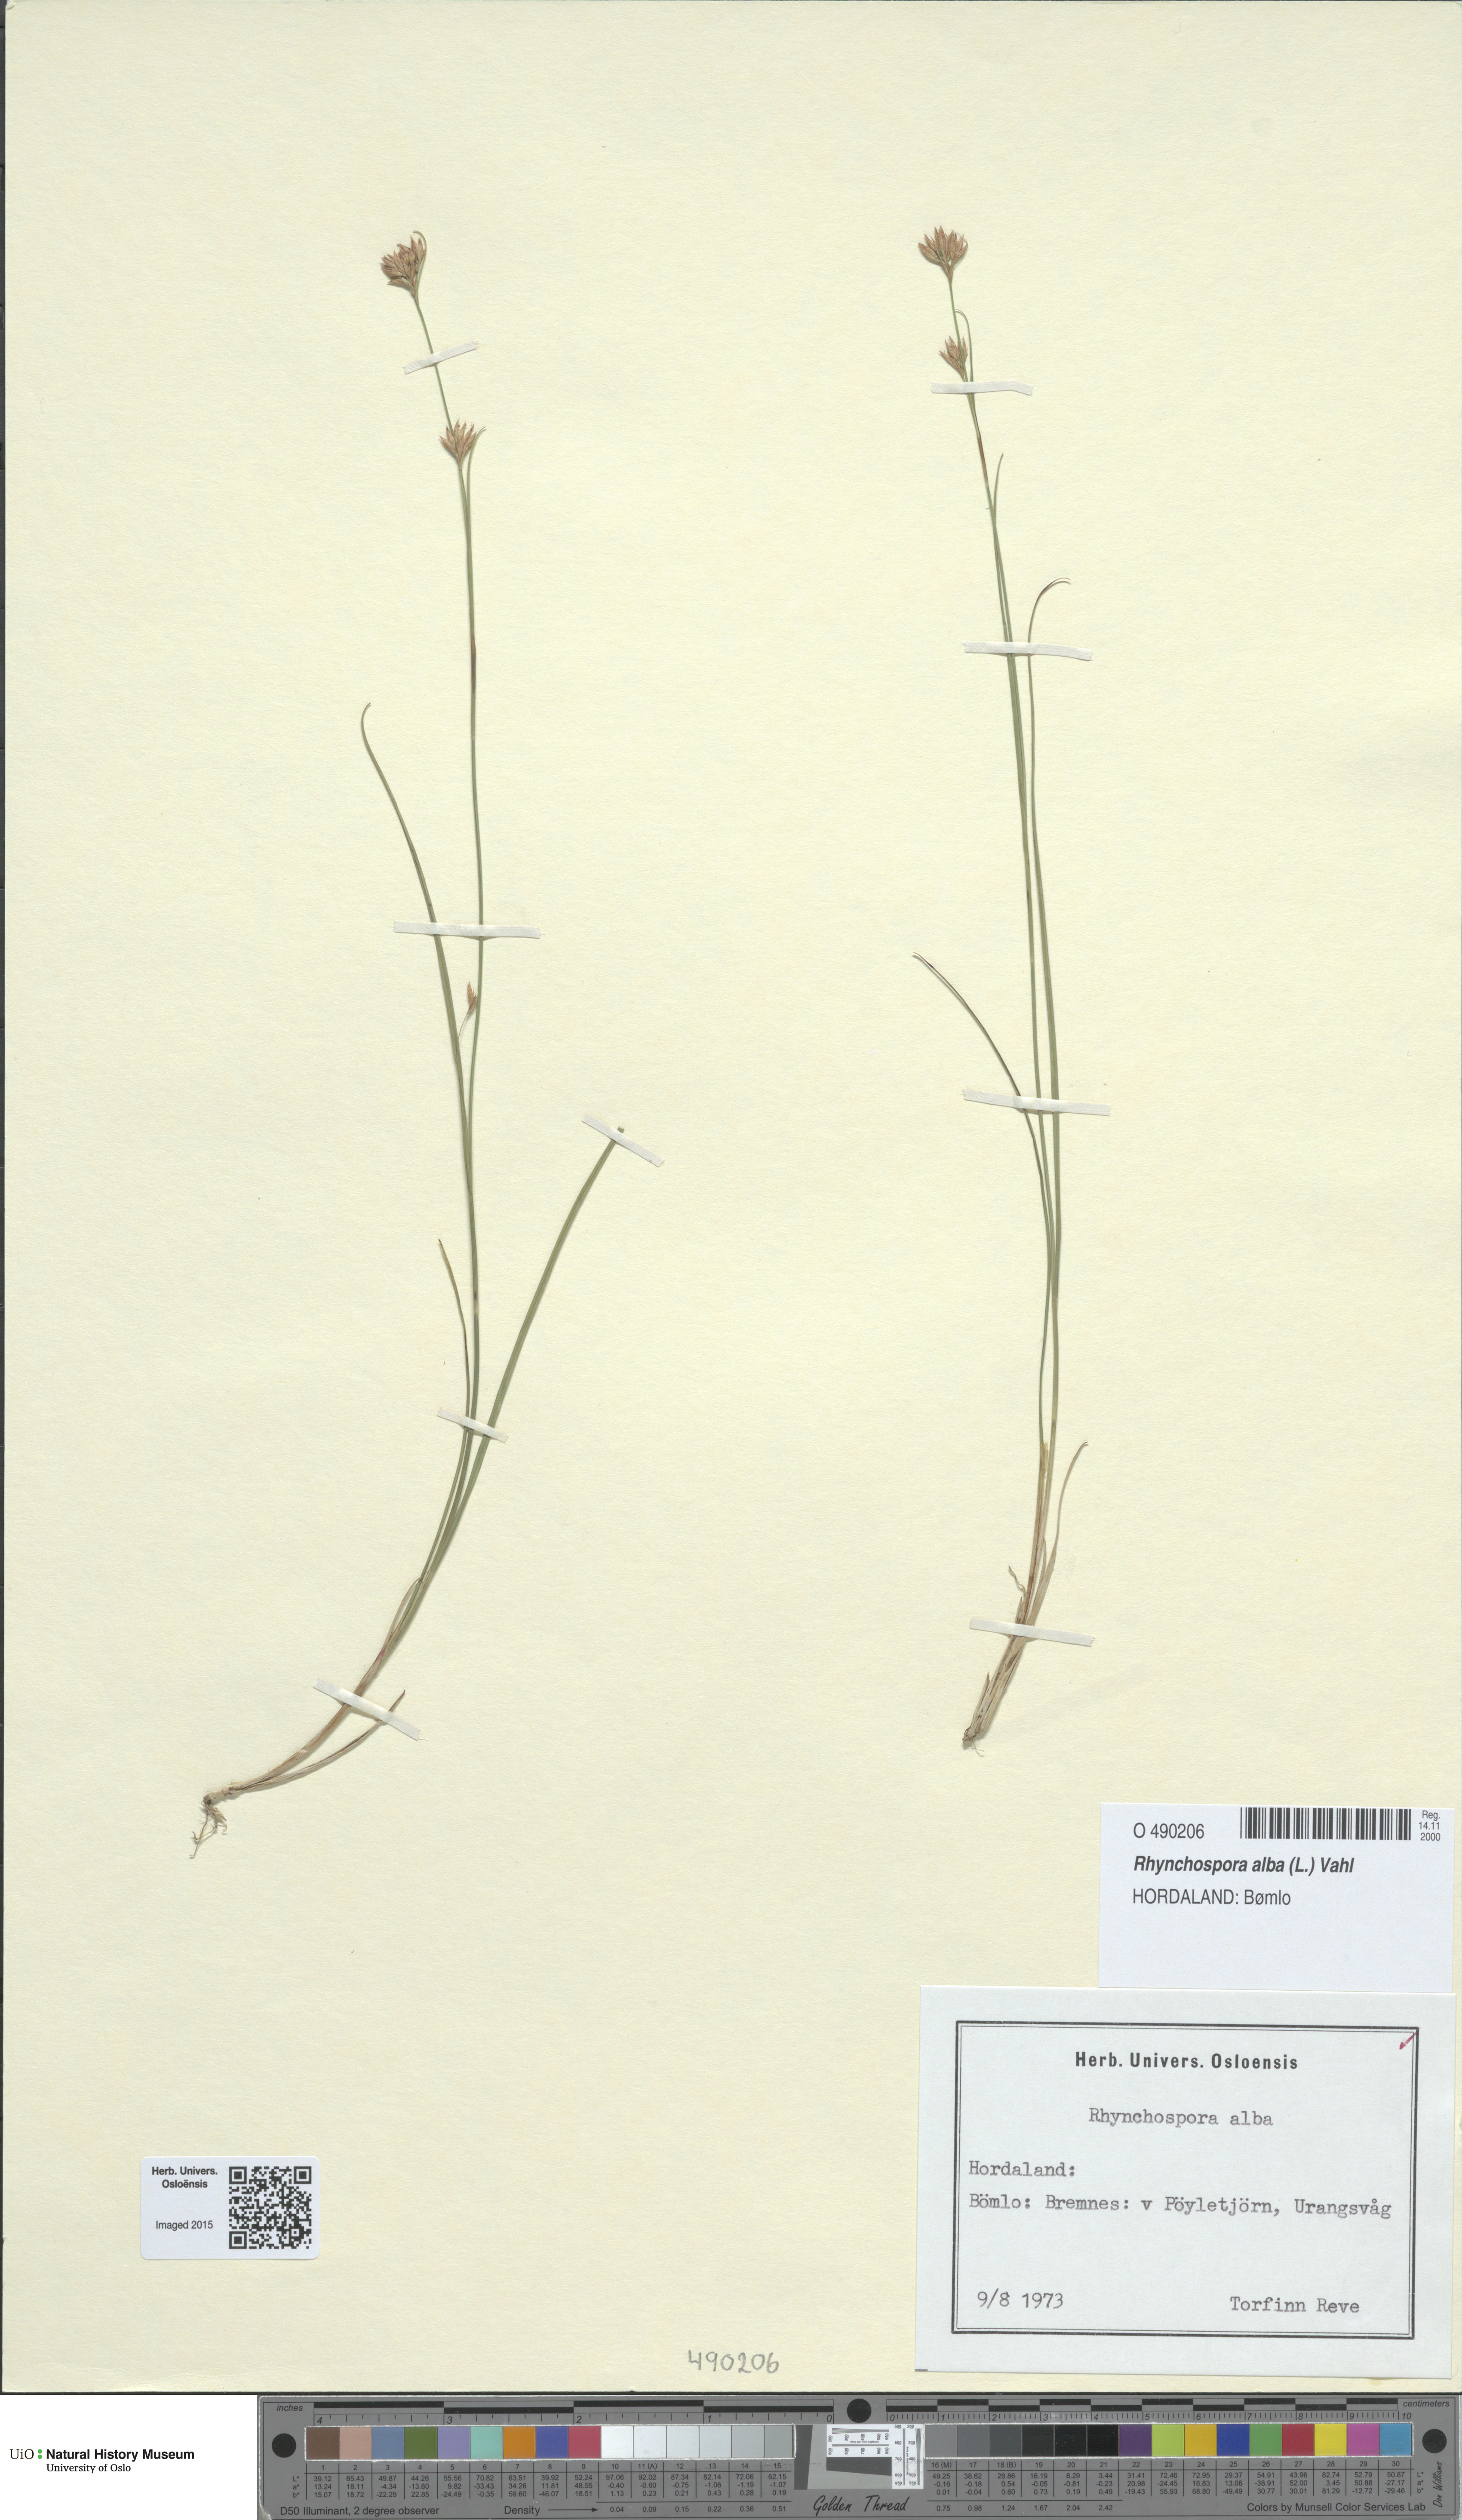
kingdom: Plantae
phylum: Tracheophyta
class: Liliopsida
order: Poales
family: Cyperaceae
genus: Rhynchospora
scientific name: Rhynchospora alba
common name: White beak-sedge
